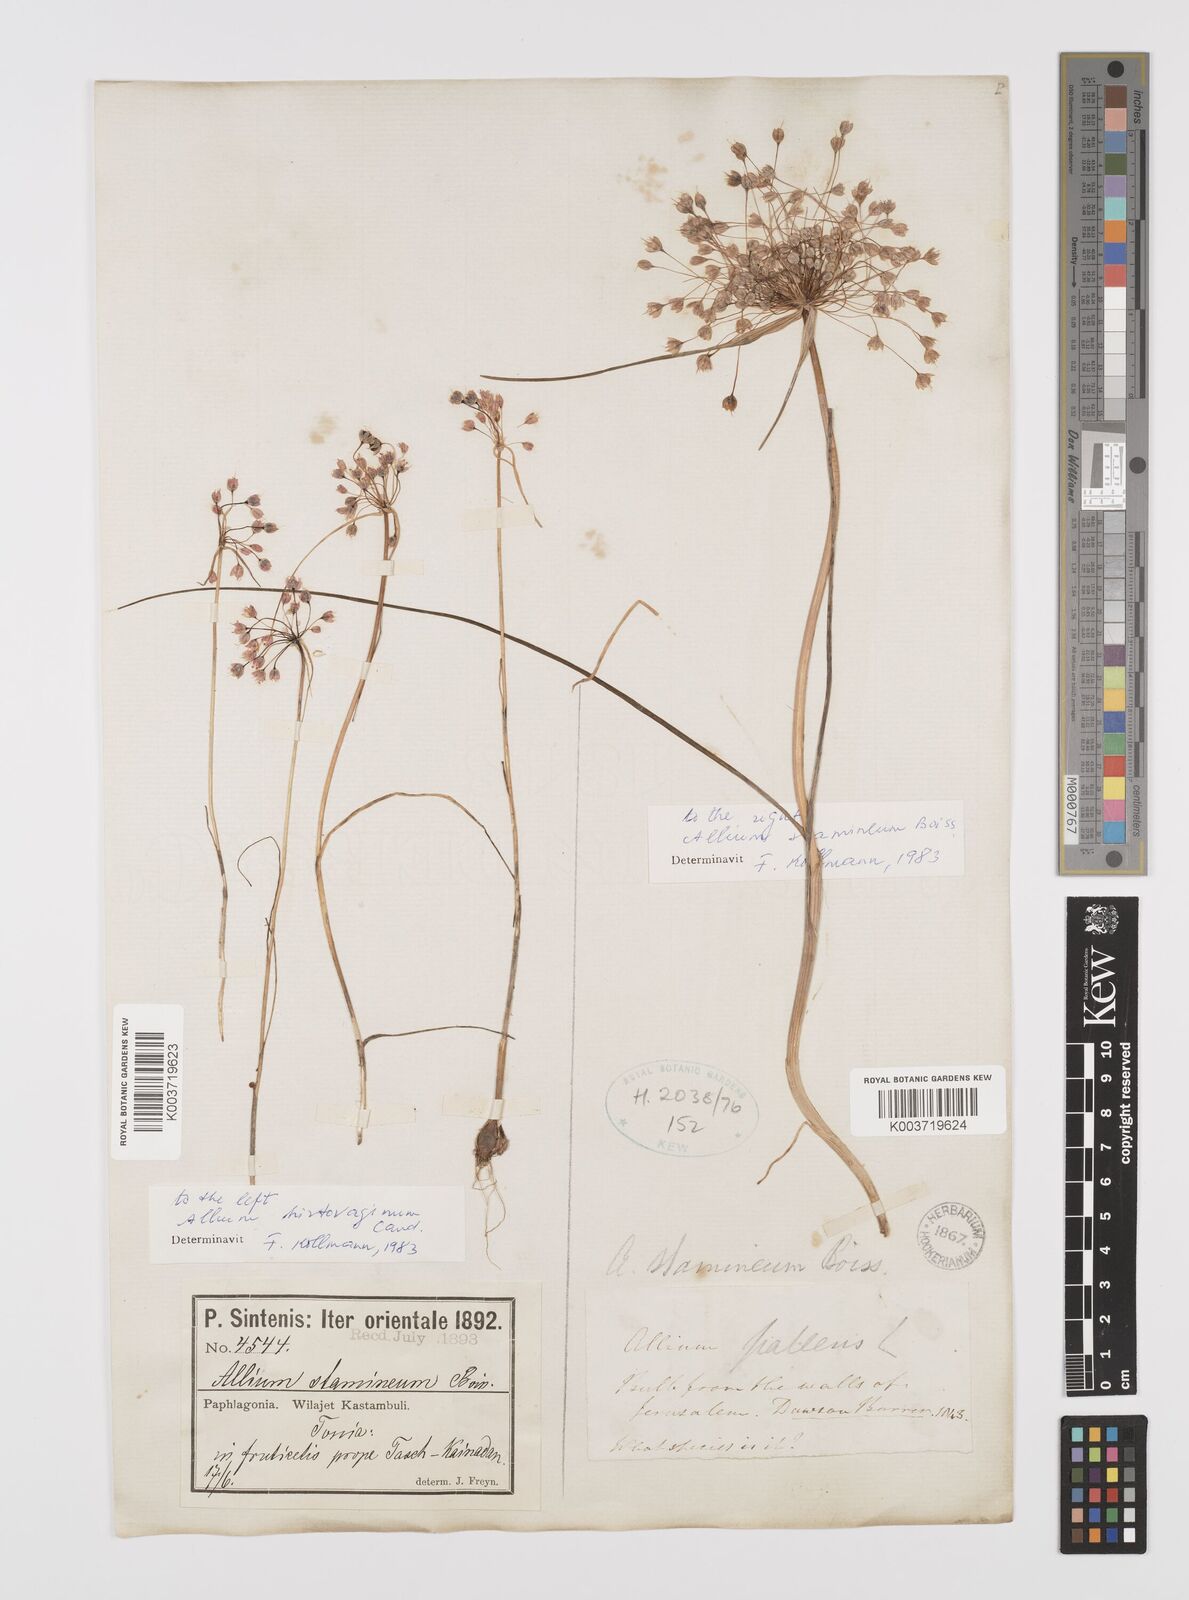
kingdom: Plantae
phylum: Tracheophyta
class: Liliopsida
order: Asparagales
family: Amaryllidaceae
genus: Allium
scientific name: Allium hirtovaginum
